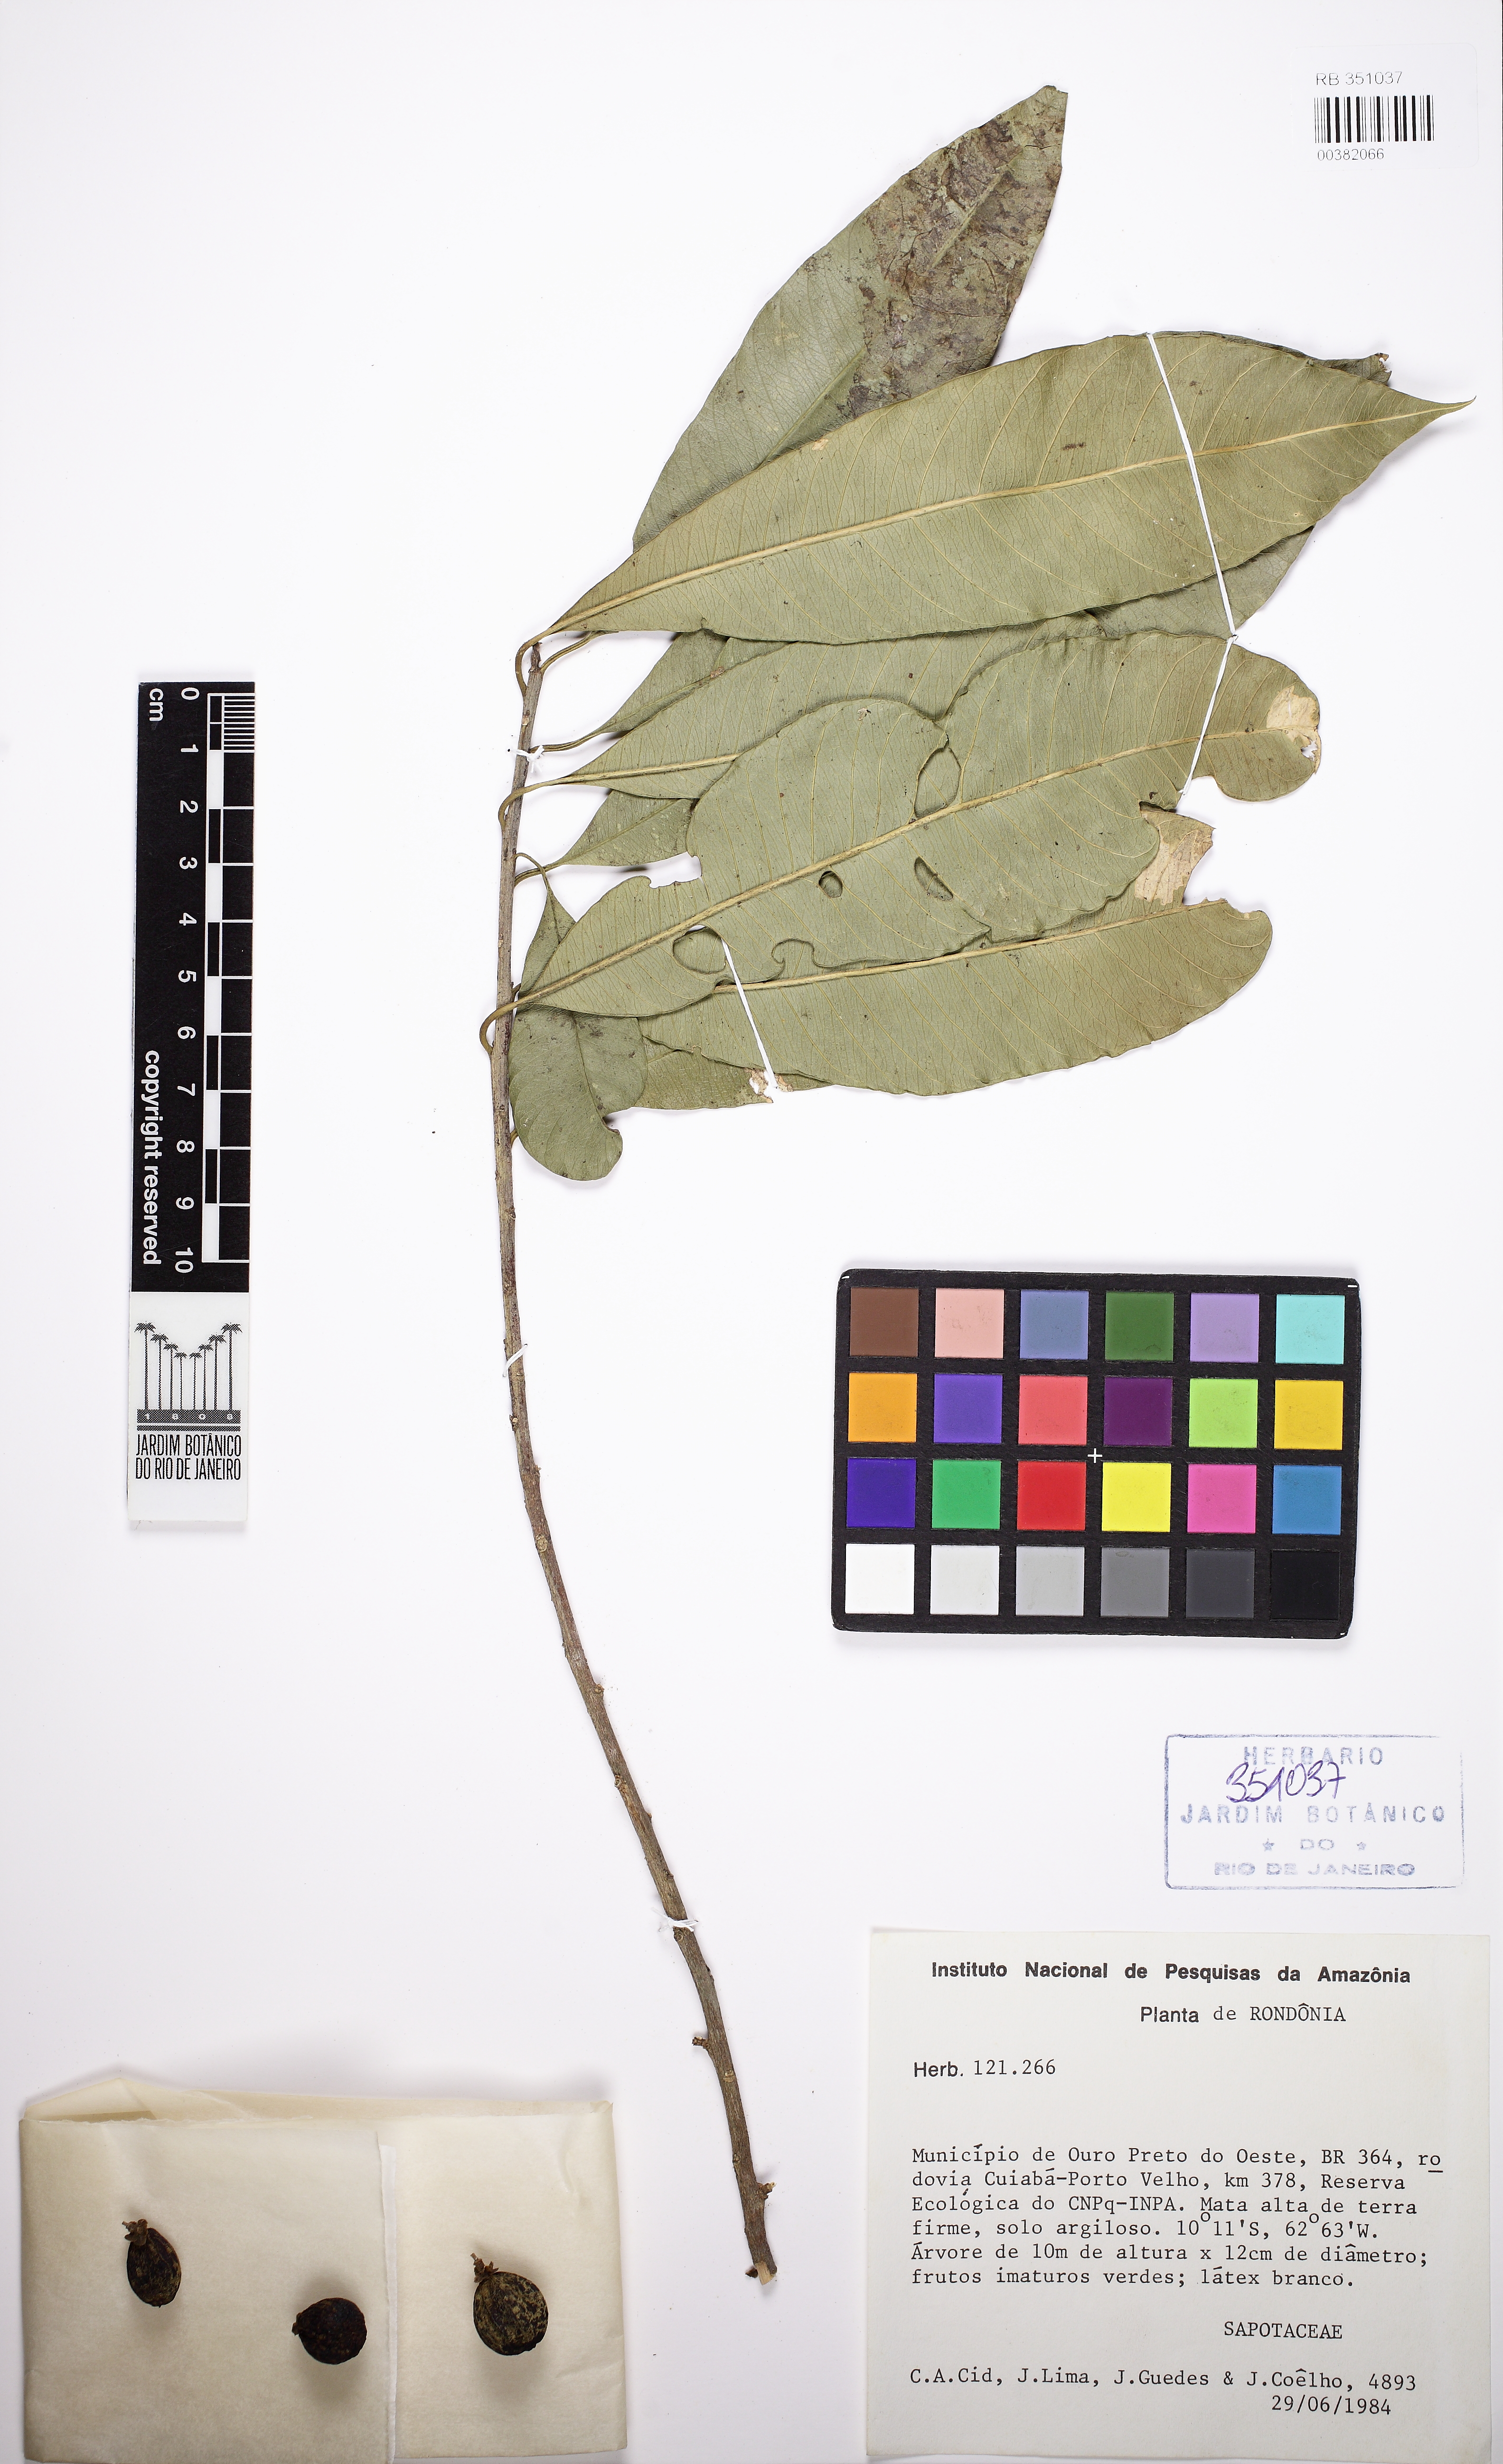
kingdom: Plantae
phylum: Tracheophyta
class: Magnoliopsida
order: Ericales
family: Sapotaceae
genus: Chrysophyllum
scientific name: Chrysophyllum gonocarpum
